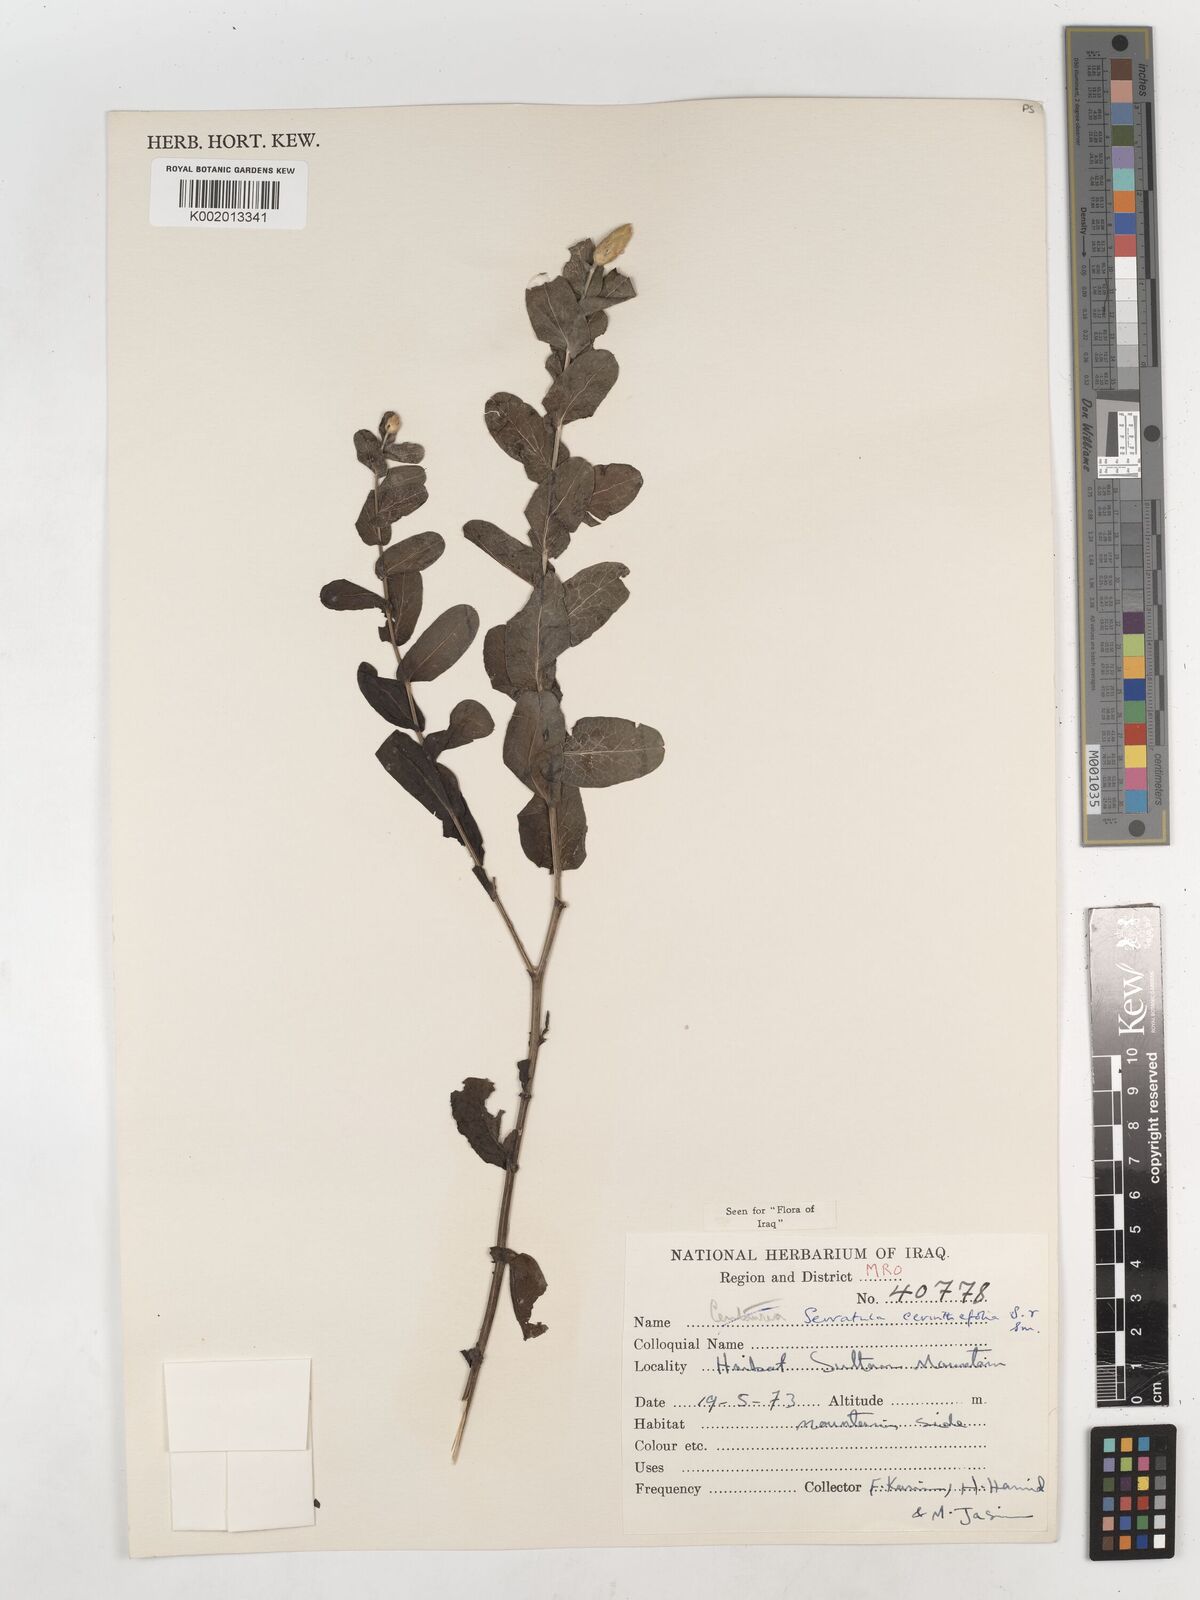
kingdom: Plantae
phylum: Tracheophyta
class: Magnoliopsida
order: Asterales
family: Asteraceae
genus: Klasea
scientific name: Klasea cerinthifolia
